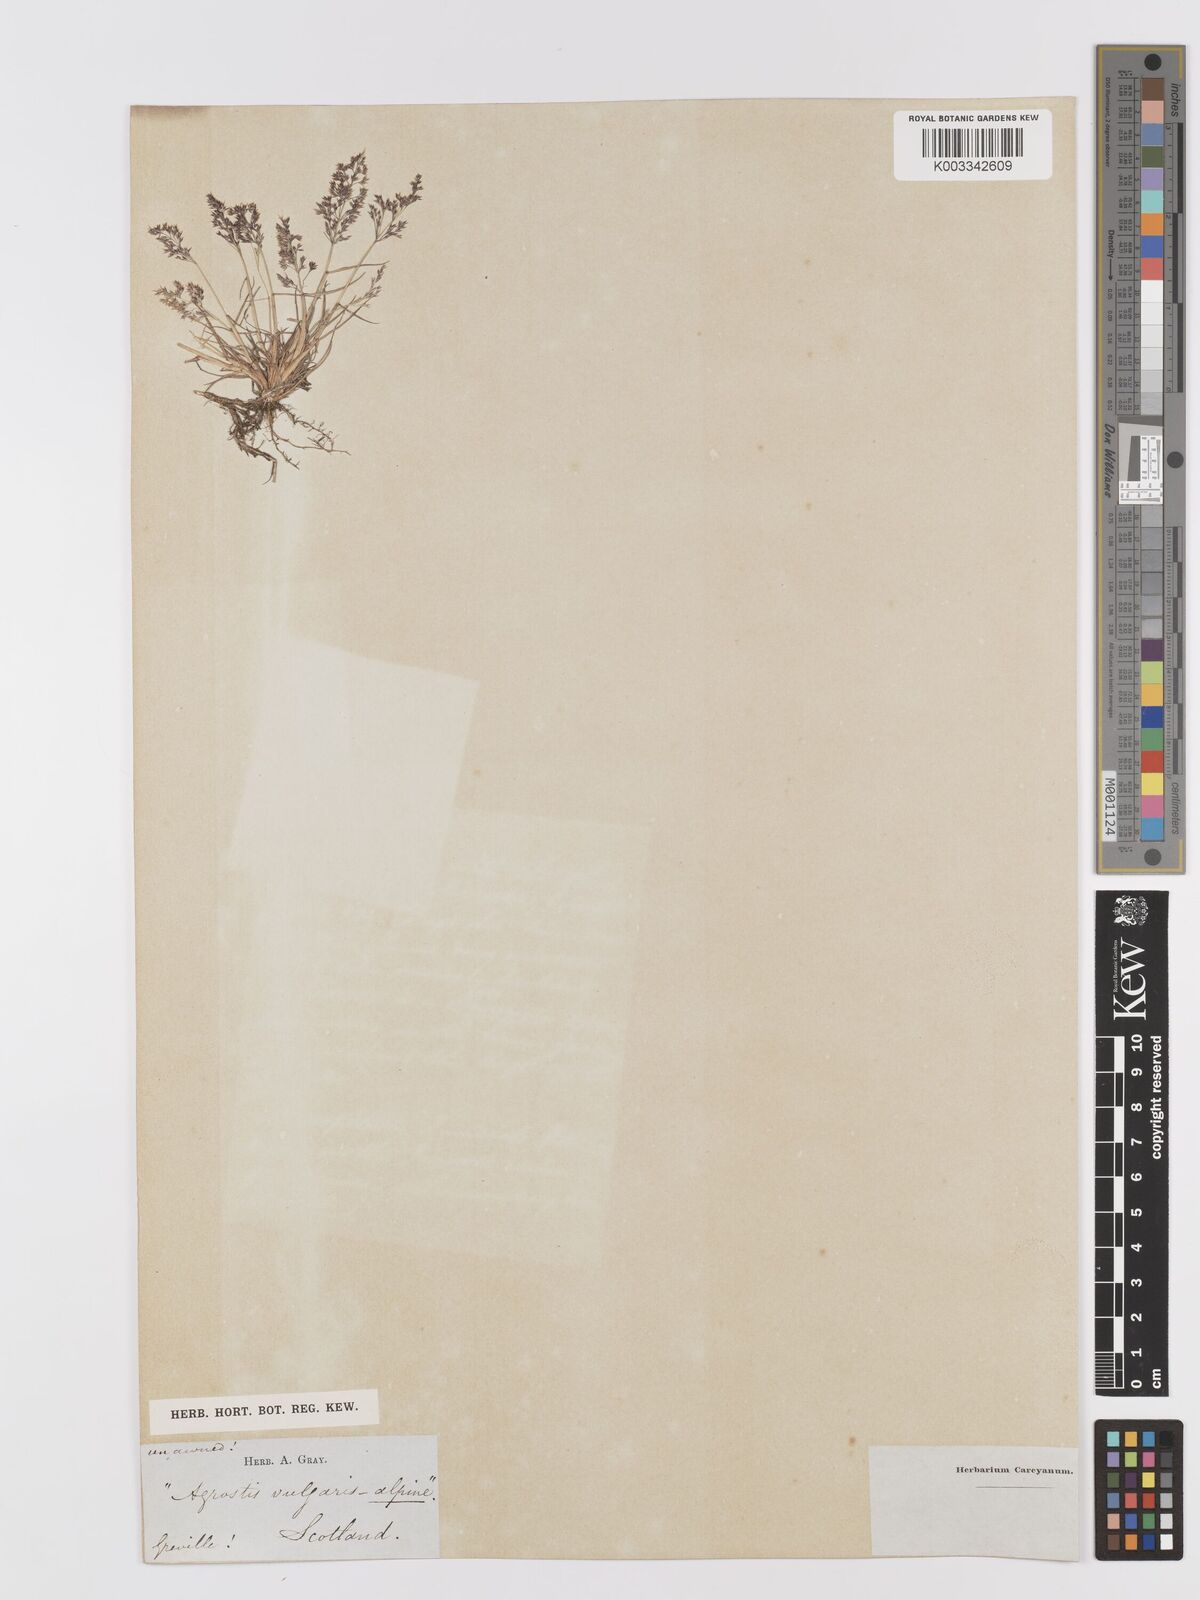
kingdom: Plantae
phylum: Tracheophyta
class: Liliopsida
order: Poales
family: Poaceae
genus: Agrostis
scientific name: Agrostis
